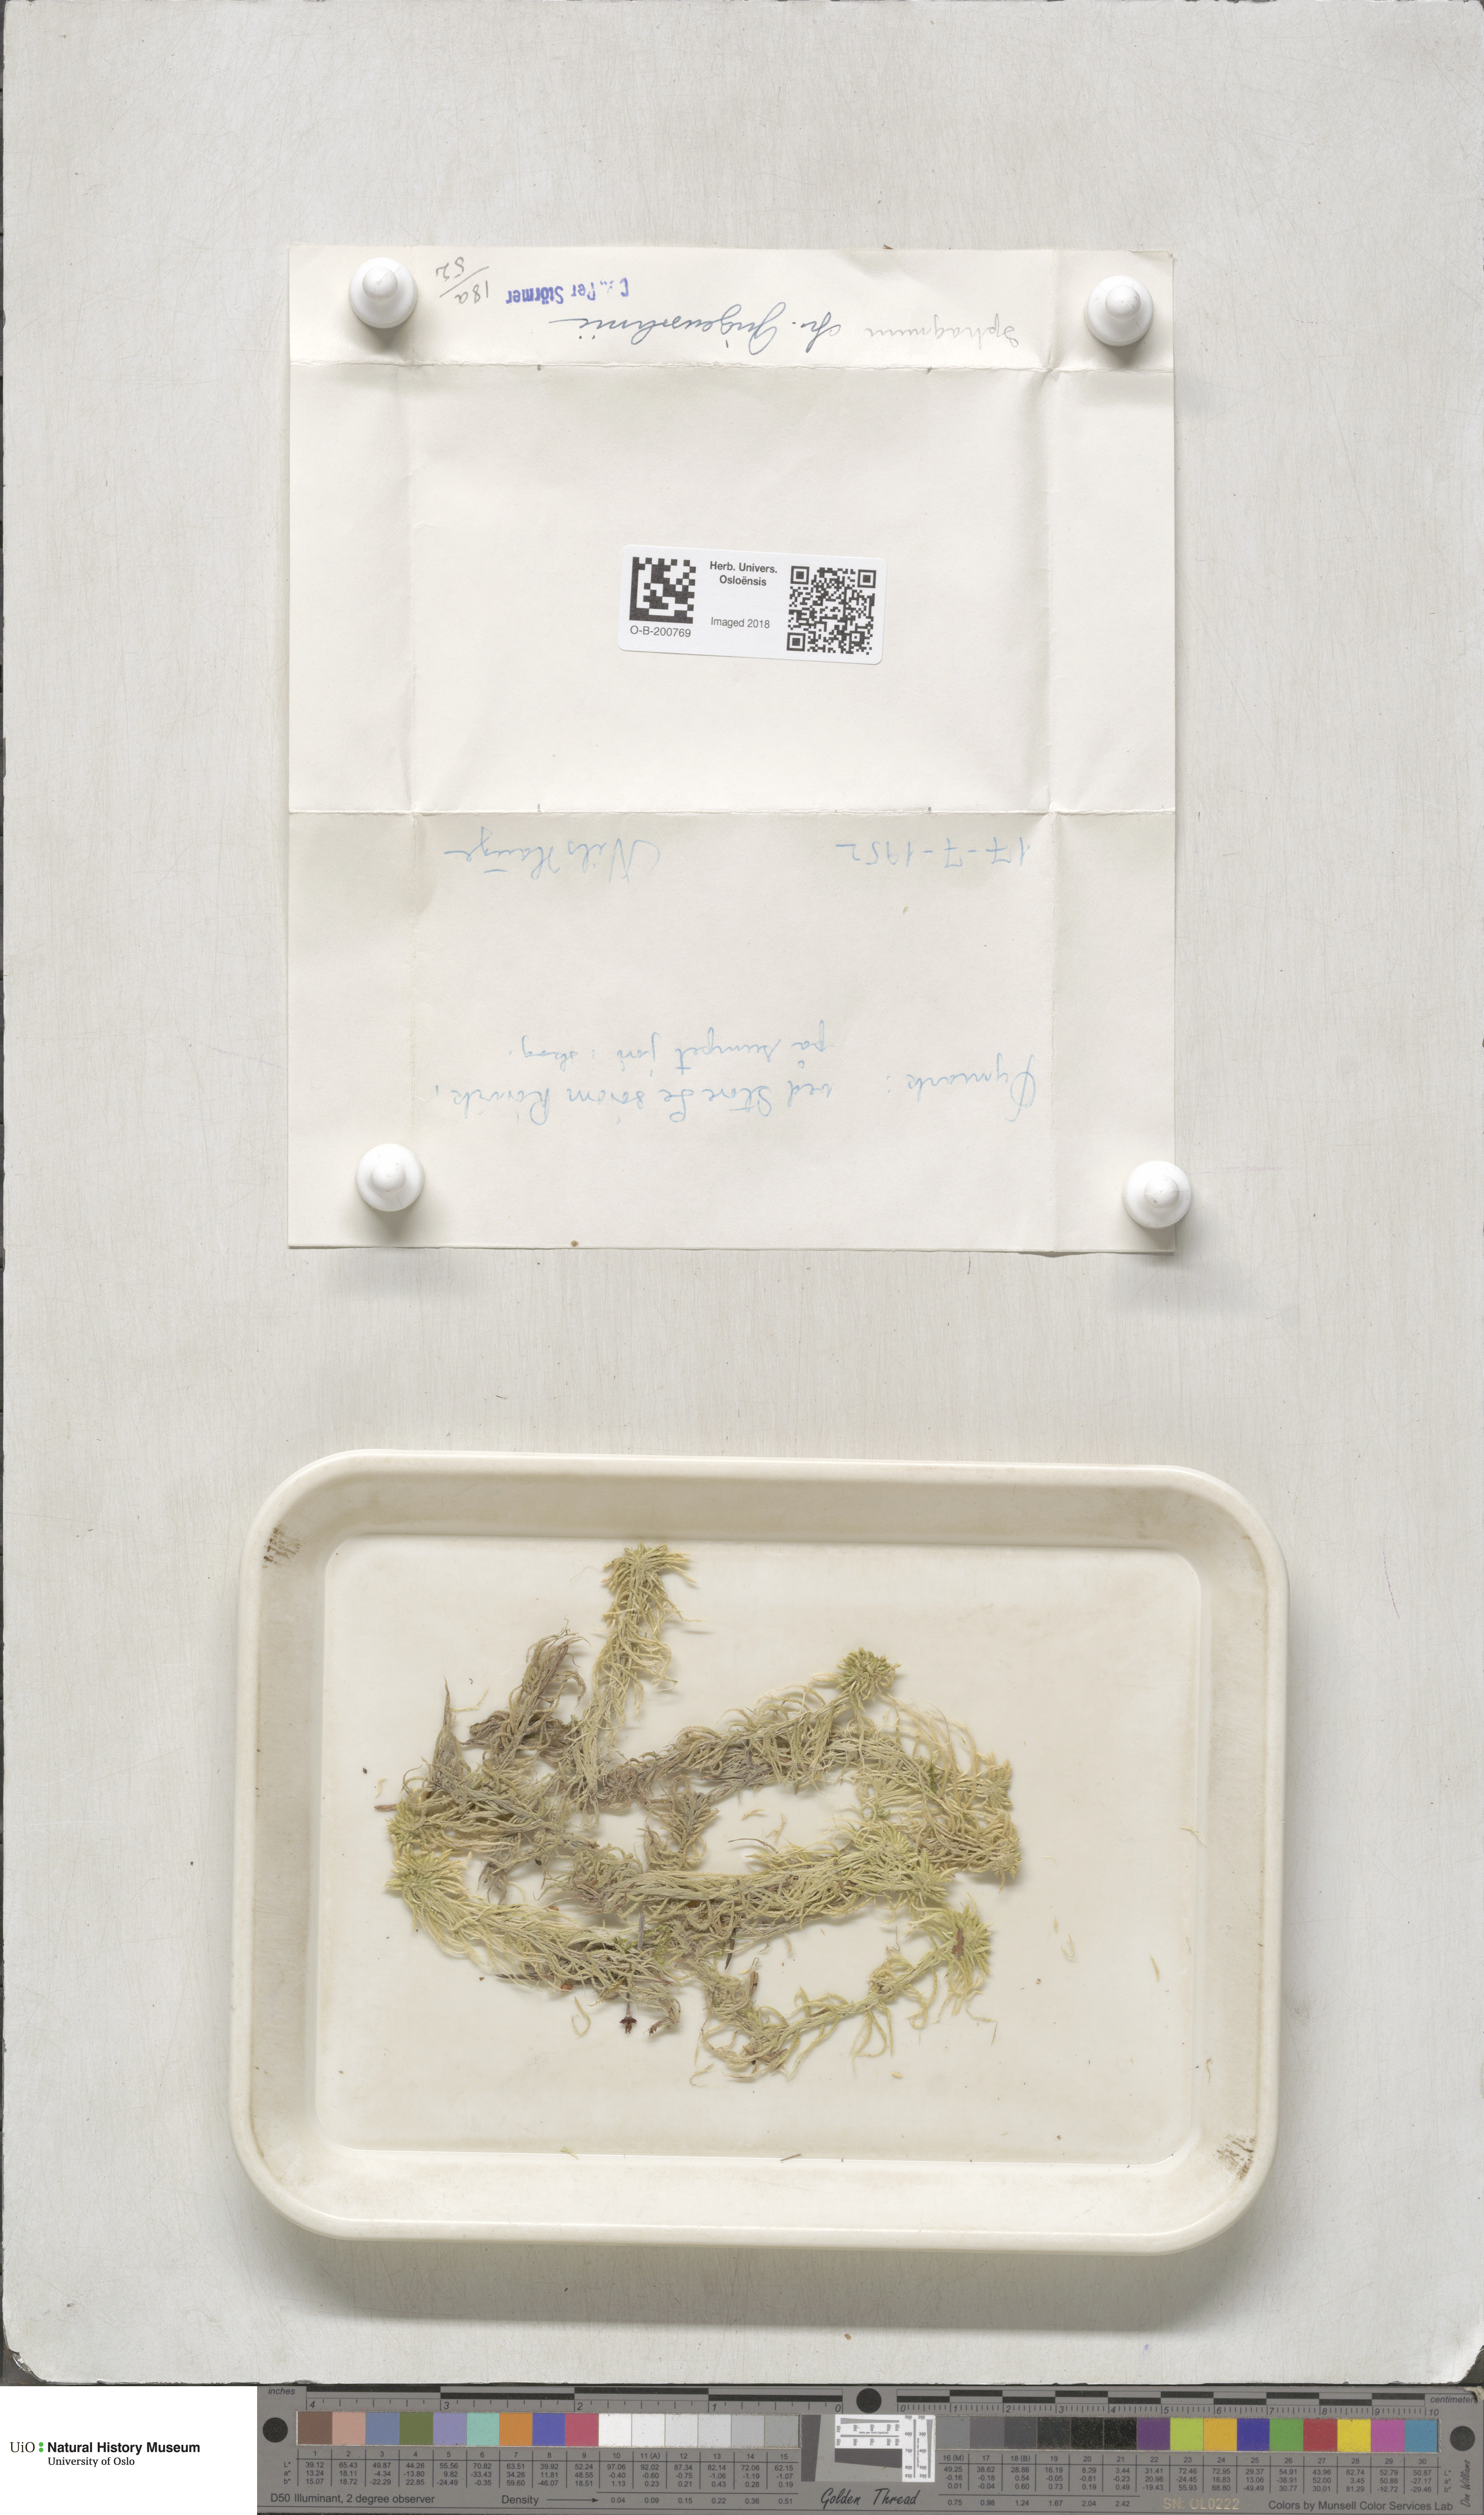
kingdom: Plantae
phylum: Bryophyta
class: Sphagnopsida
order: Sphagnales
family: Sphagnaceae
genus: Sphagnum
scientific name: Sphagnum girgensohnii
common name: Girgensohn's peat moss
